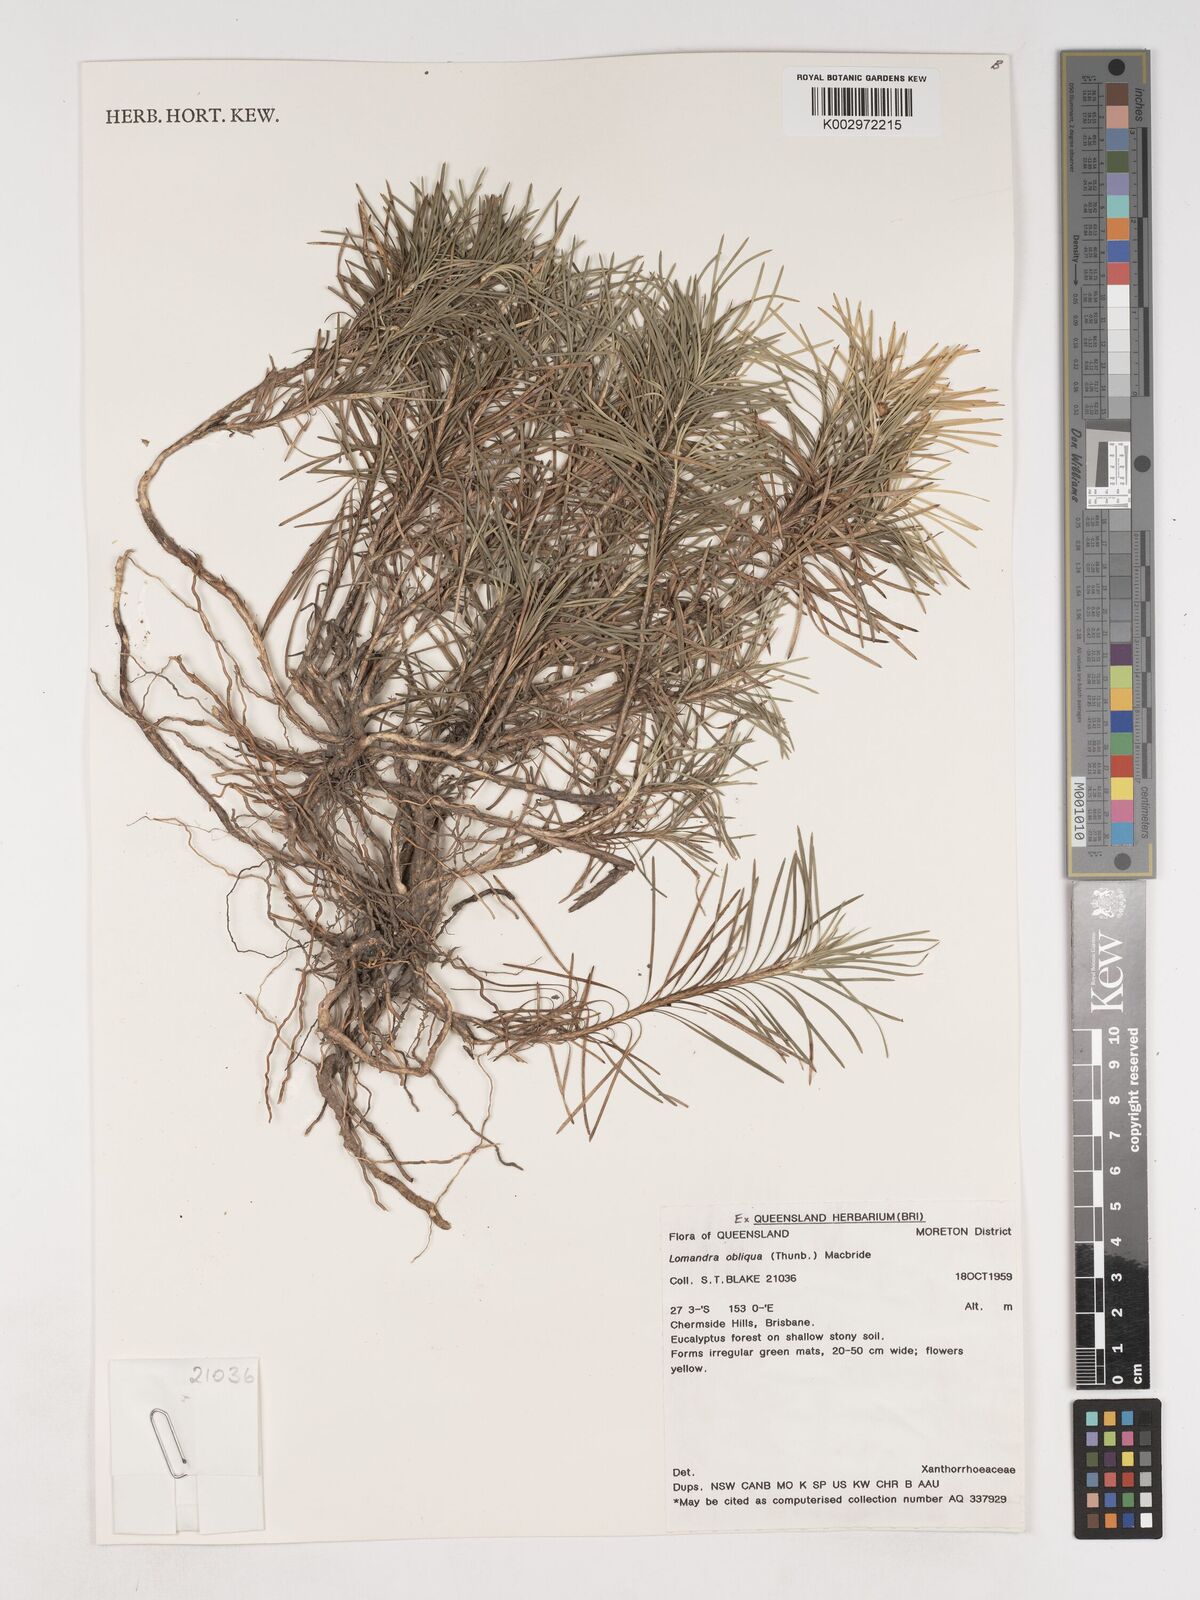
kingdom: Plantae
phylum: Tracheophyta
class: Liliopsida
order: Asparagales
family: Asparagaceae
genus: Lomandra
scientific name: Lomandra obliqua
